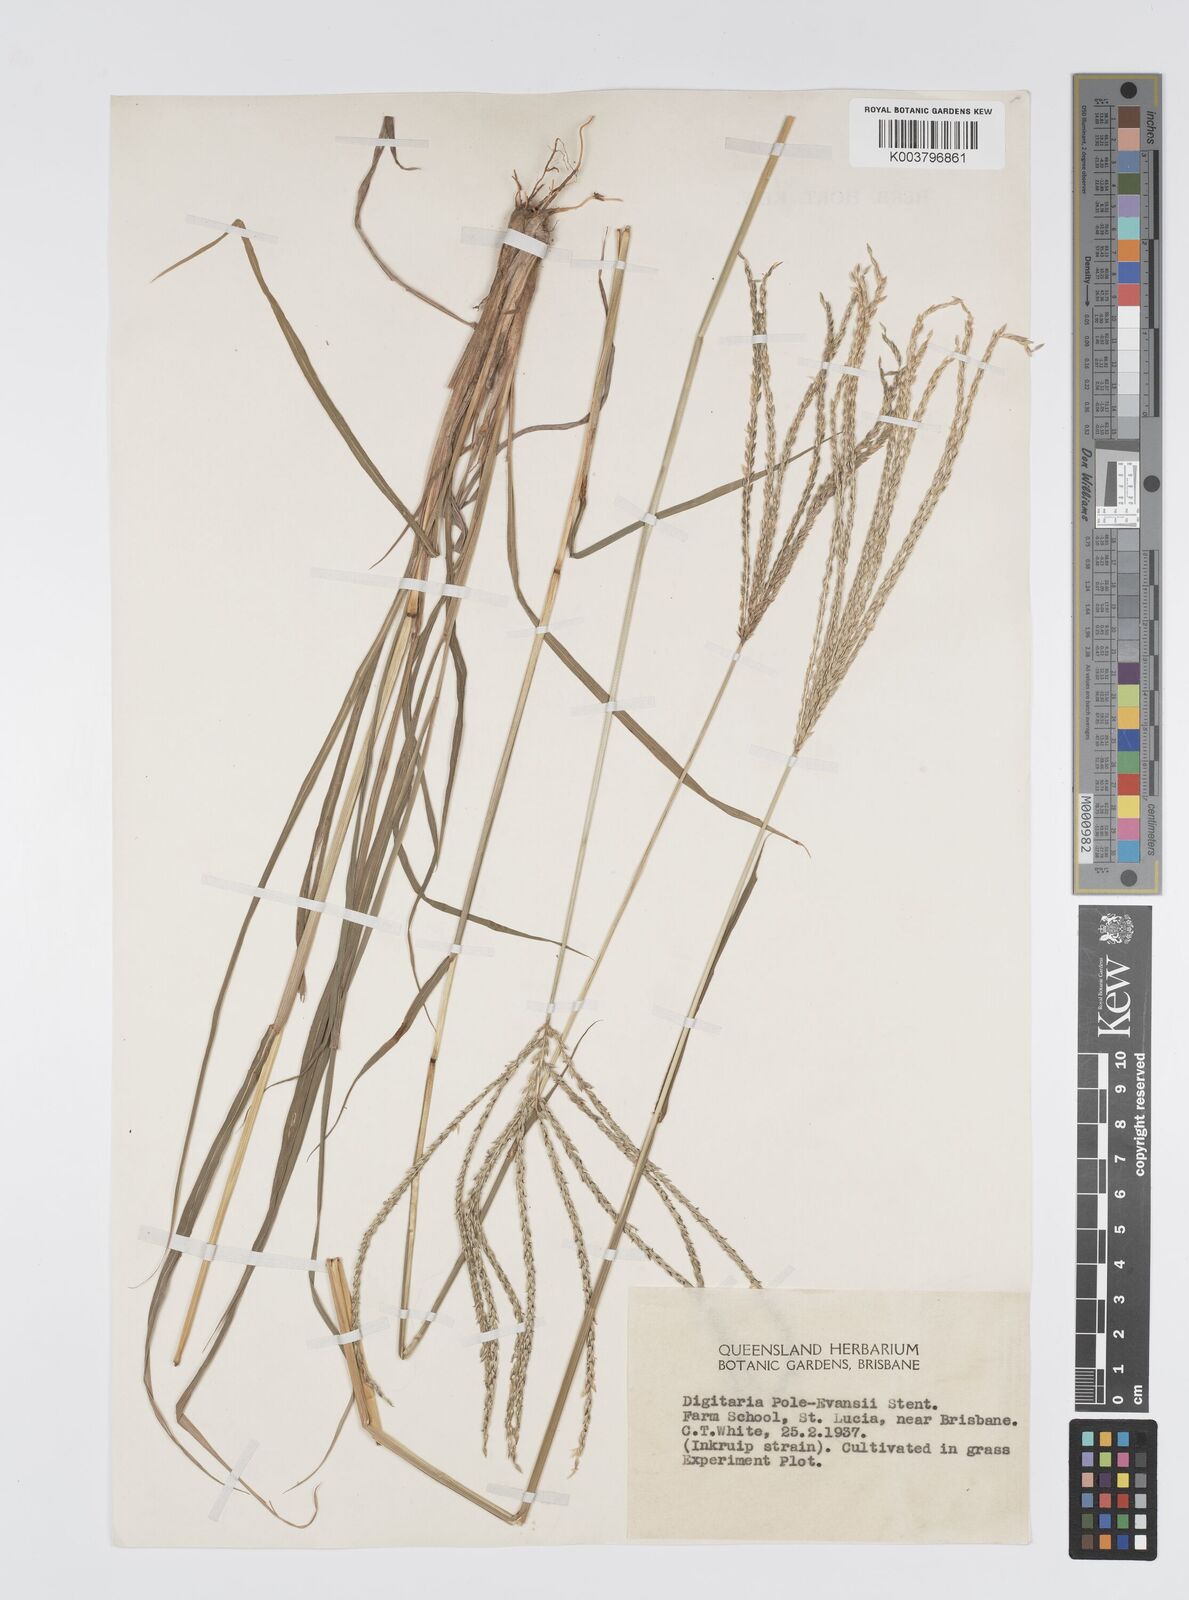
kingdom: Plantae
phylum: Tracheophyta
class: Liliopsida
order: Poales
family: Poaceae
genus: Digitaria
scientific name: Digitaria seriata
